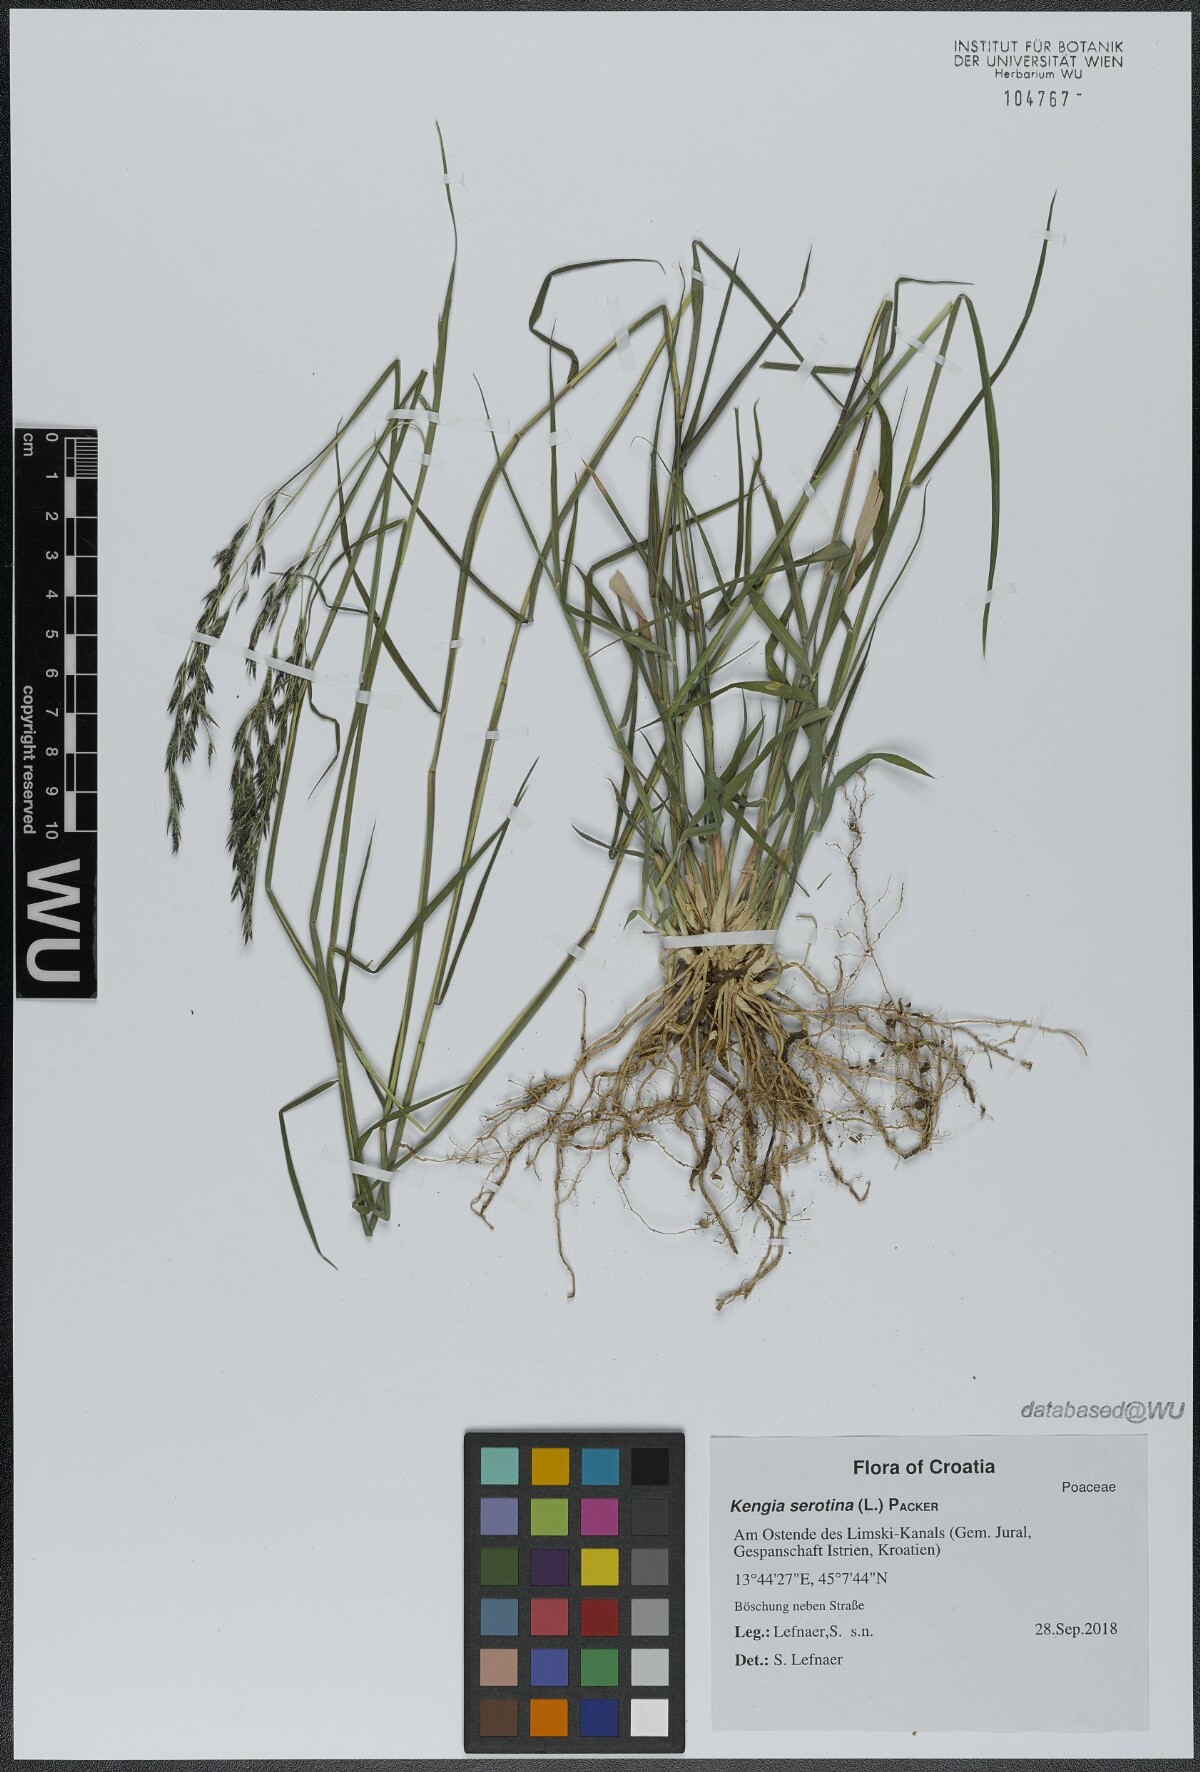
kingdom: Plantae
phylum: Tracheophyta
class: Liliopsida
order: Poales
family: Poaceae
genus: Cleistogenes
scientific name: Cleistogenes serotina
